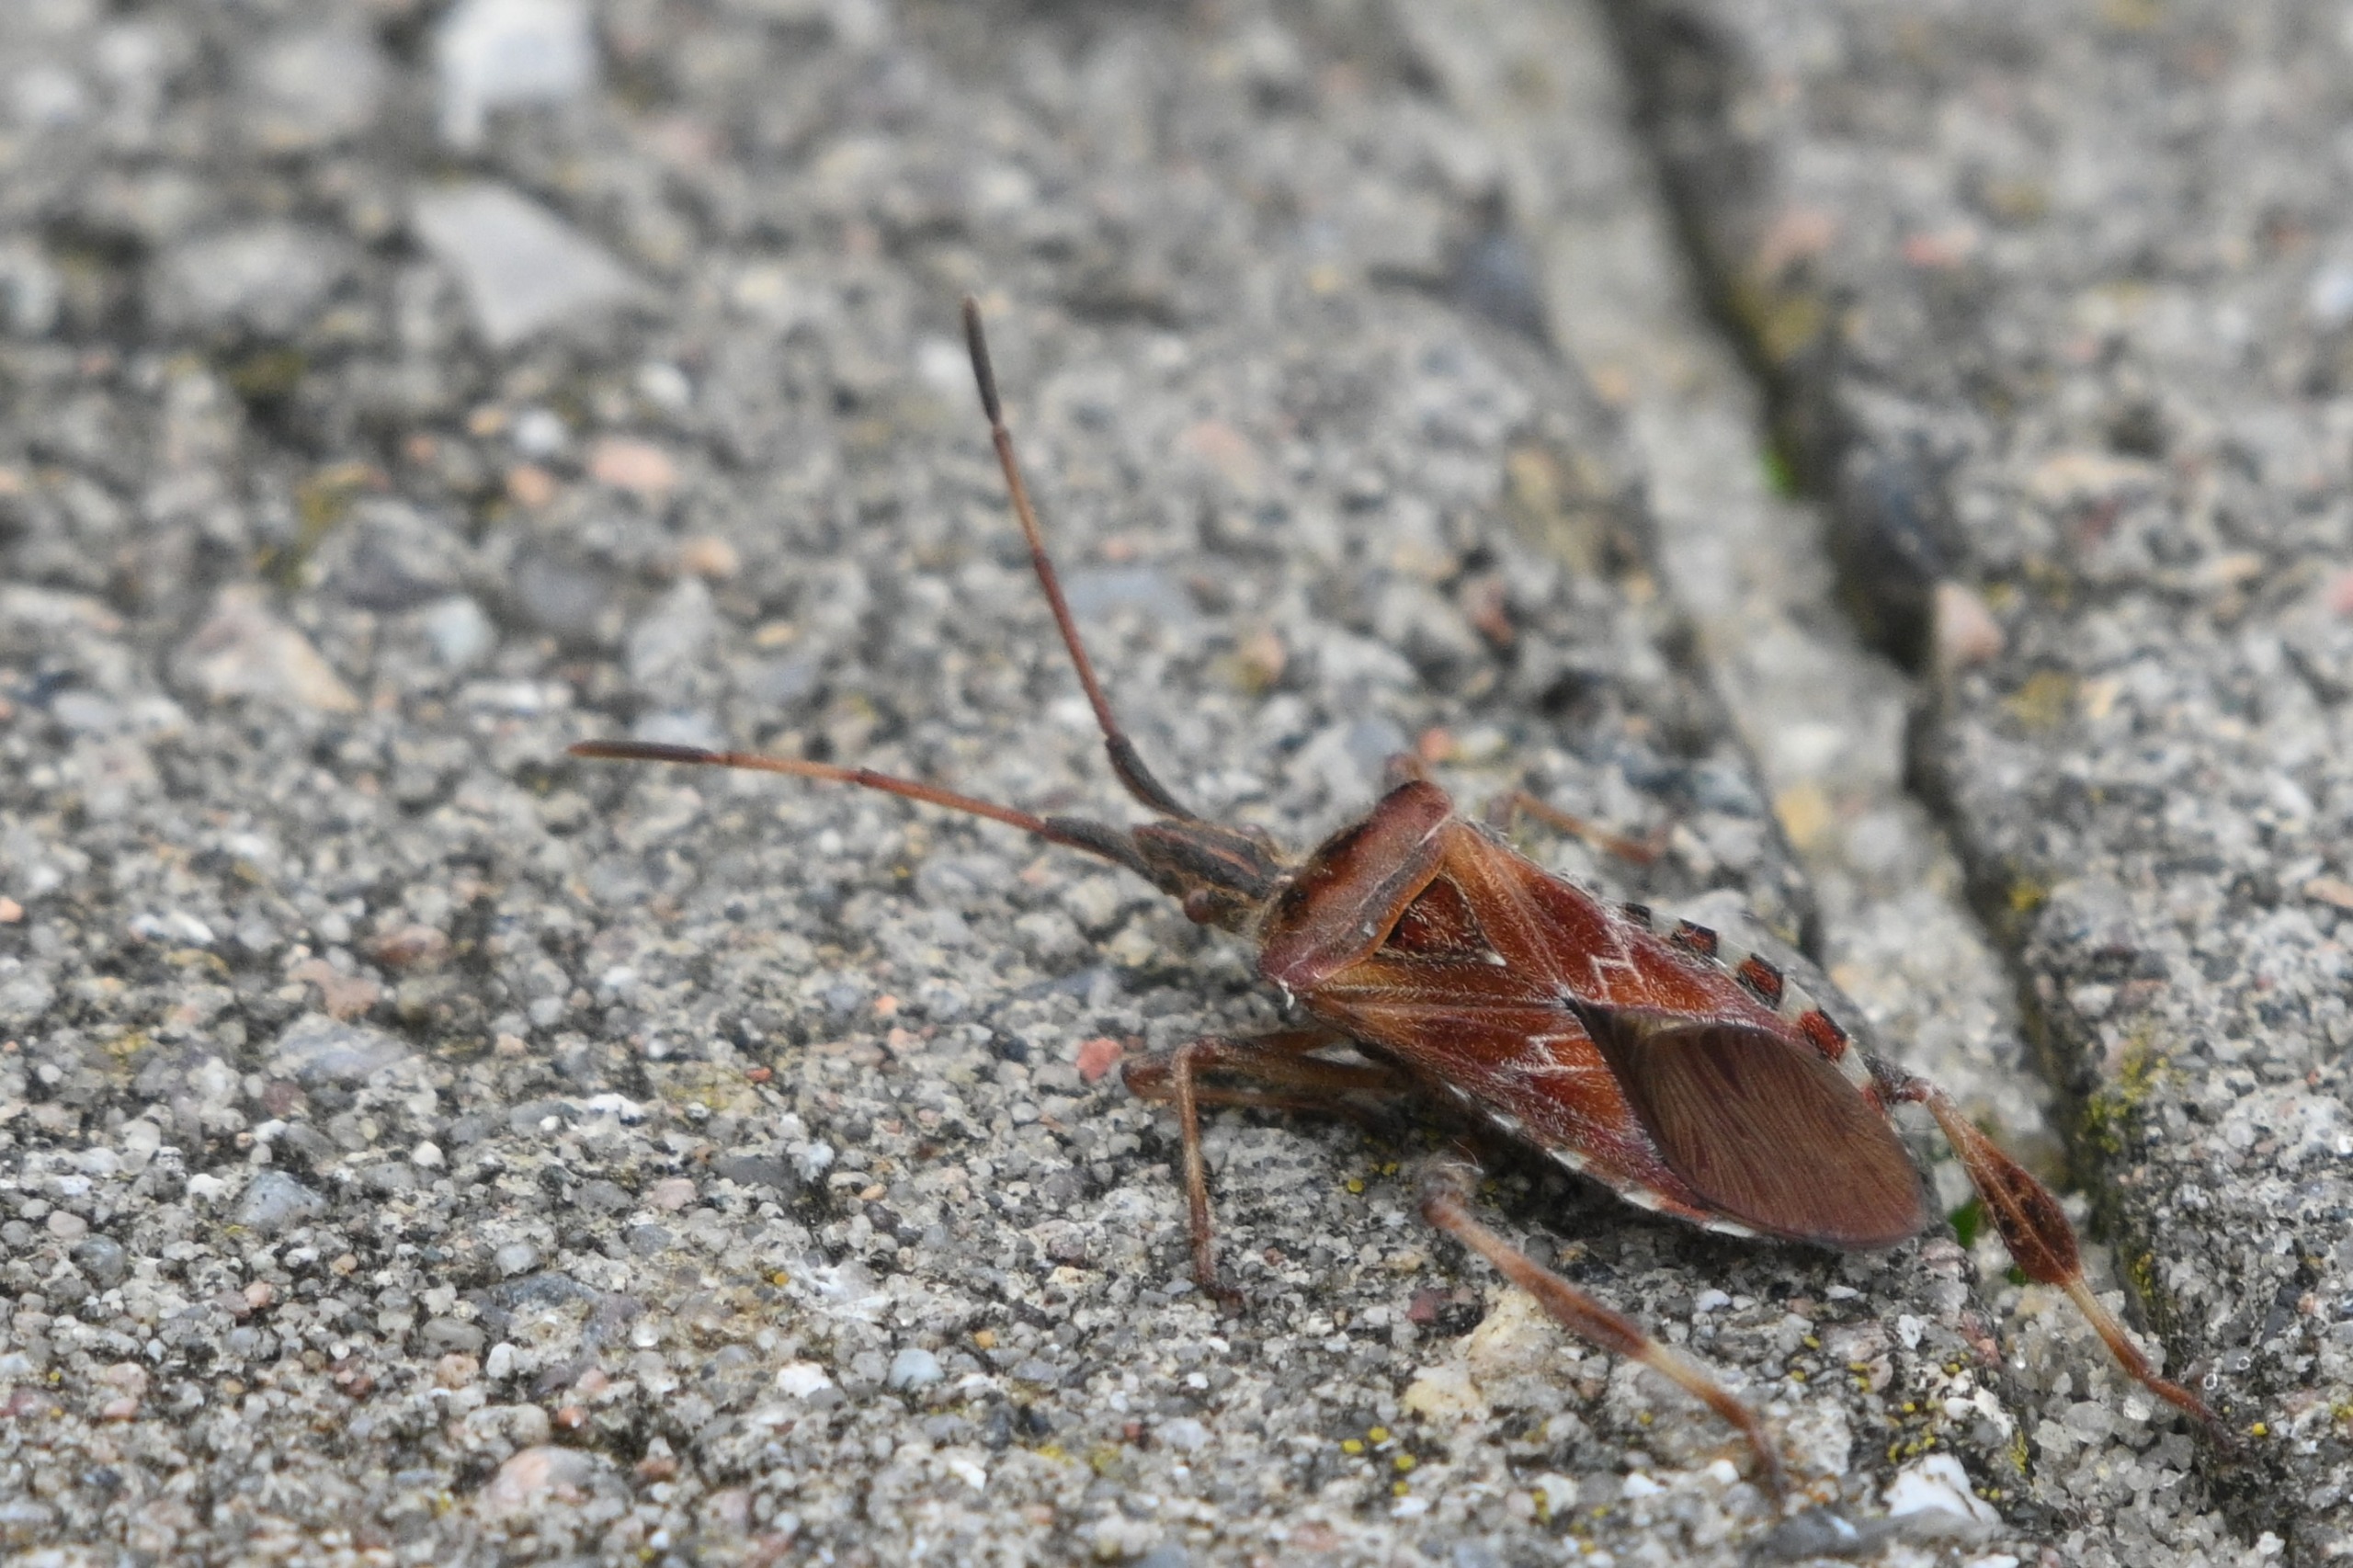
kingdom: Animalia
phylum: Arthropoda
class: Insecta
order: Hemiptera
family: Coreidae
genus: Leptoglossus
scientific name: Leptoglossus occidentalis
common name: Amerikansk fyrretæge
